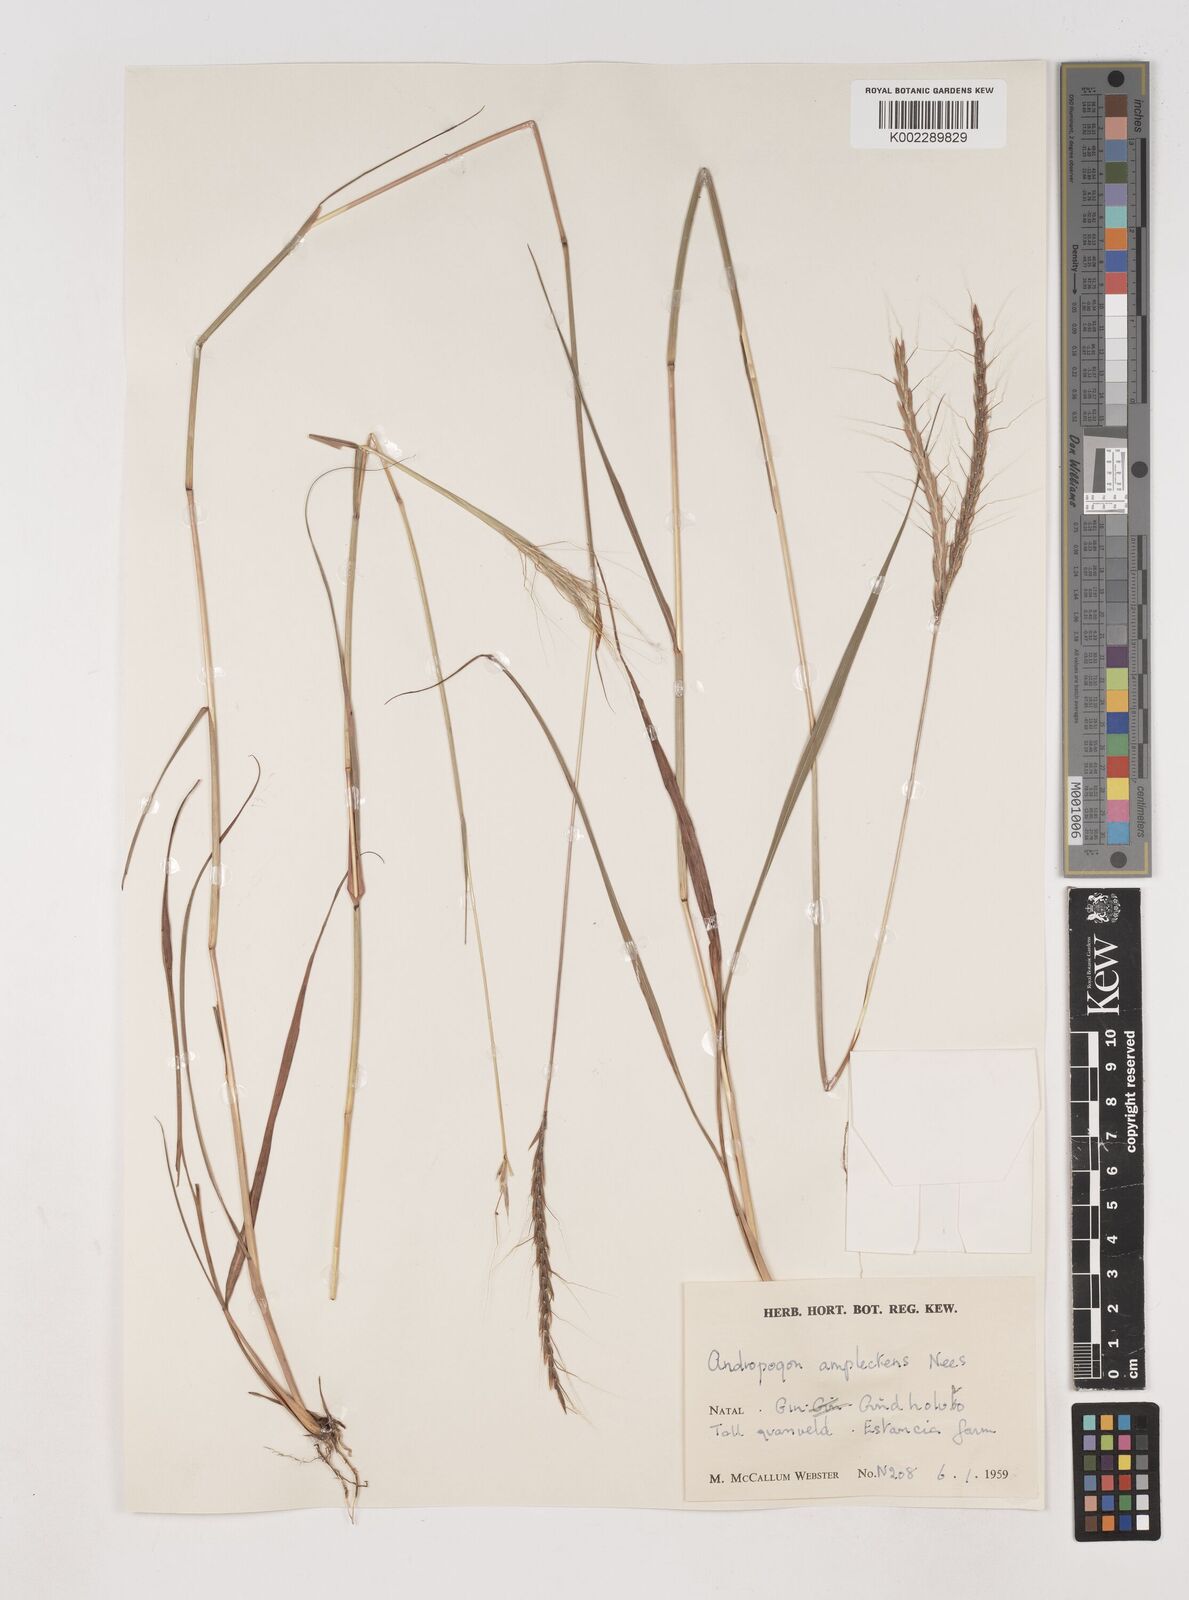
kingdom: Plantae
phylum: Tracheophyta
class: Liliopsida
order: Poales
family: Poaceae
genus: Diheteropogon
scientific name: Diheteropogon amplectens
